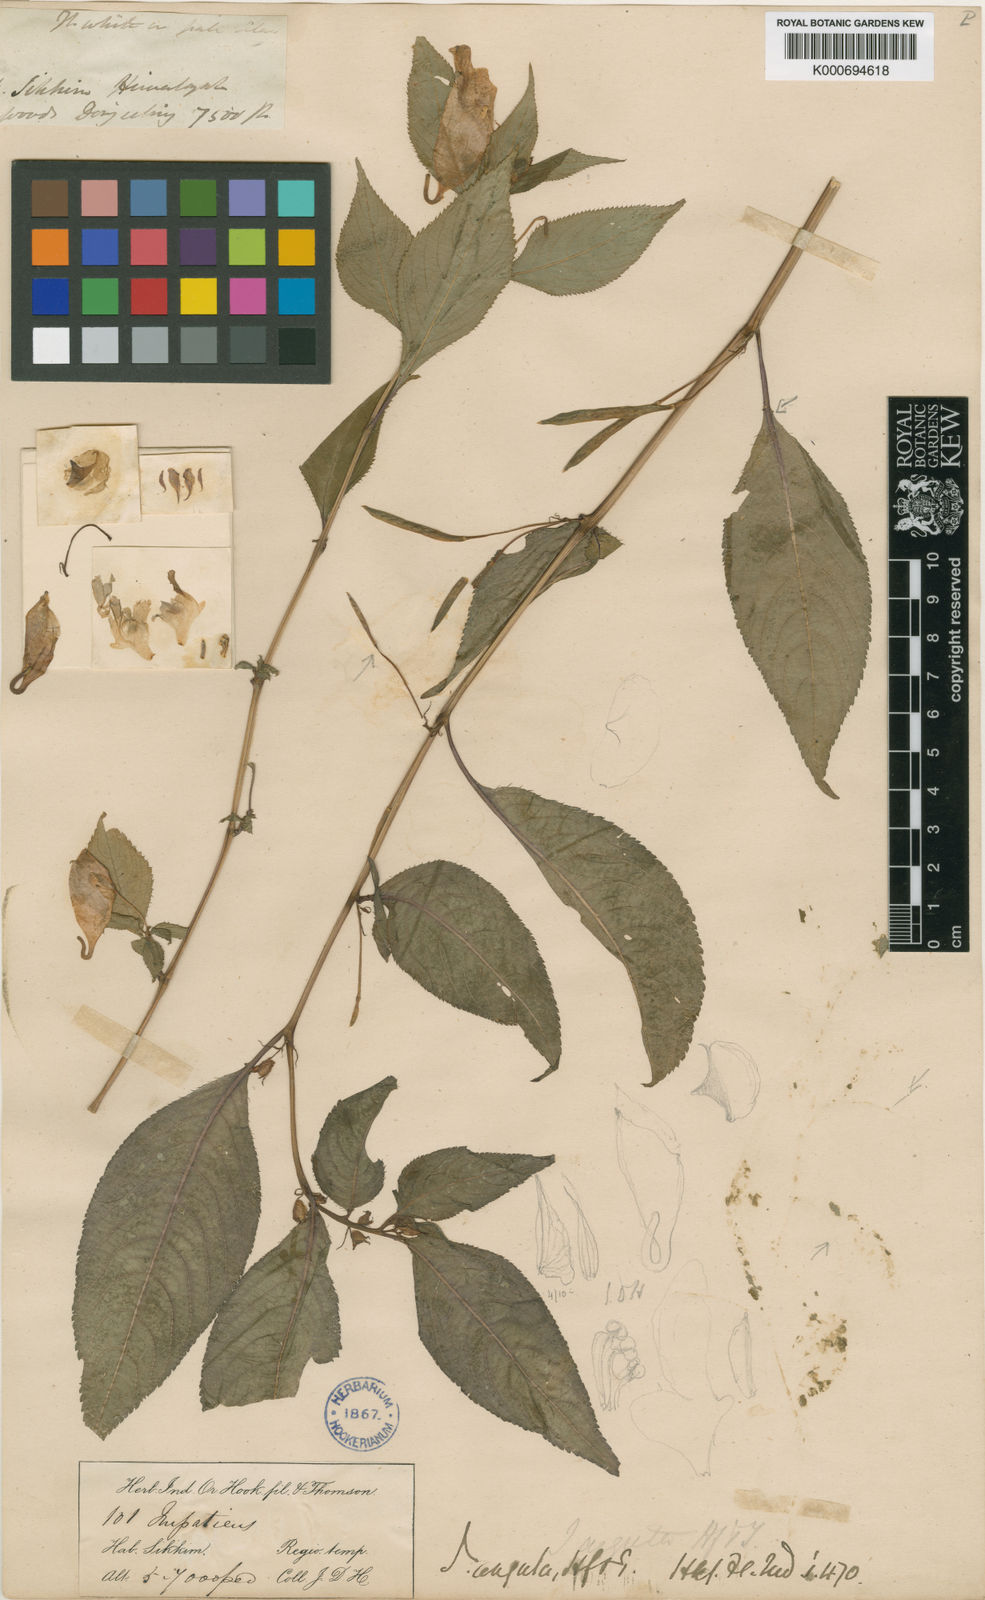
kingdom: Plantae
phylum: Tracheophyta
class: Magnoliopsida
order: Ericales
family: Balsaminaceae
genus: Impatiens
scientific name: Impatiens arguta
